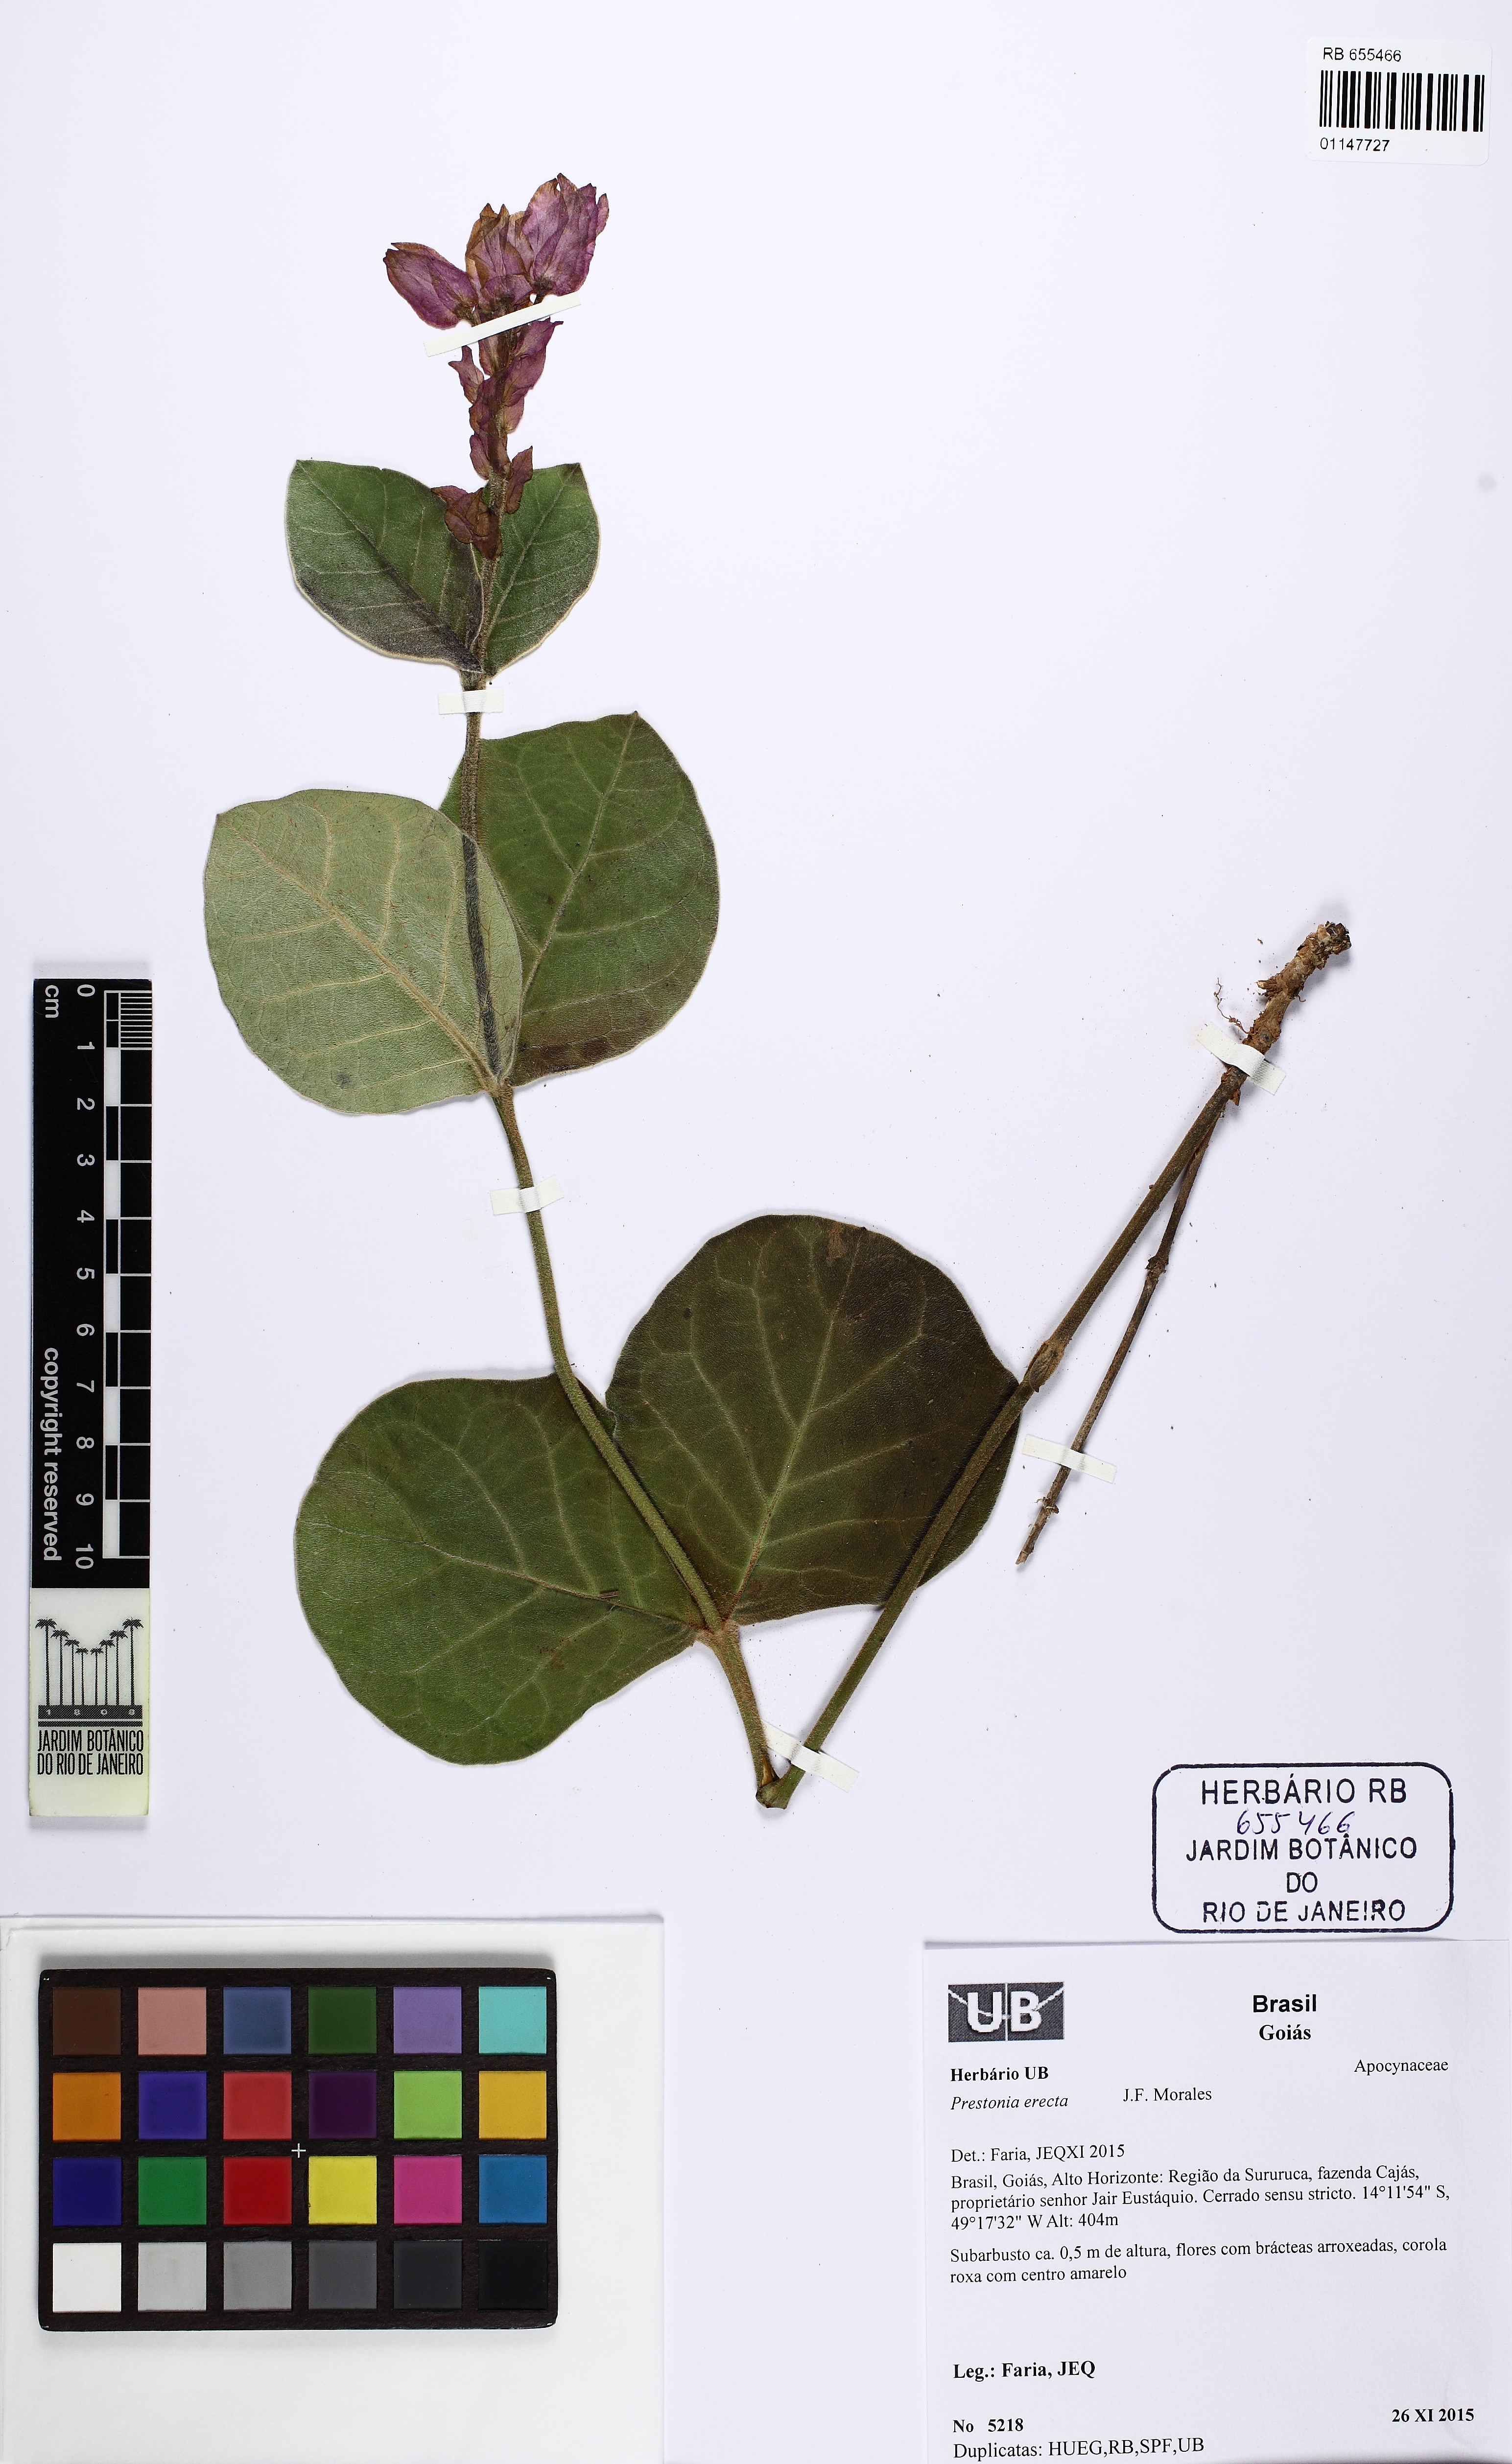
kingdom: Plantae
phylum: Tracheophyta
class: Magnoliopsida
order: Gentianales
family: Apocynaceae
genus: Prestonia
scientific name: Prestonia erecta
